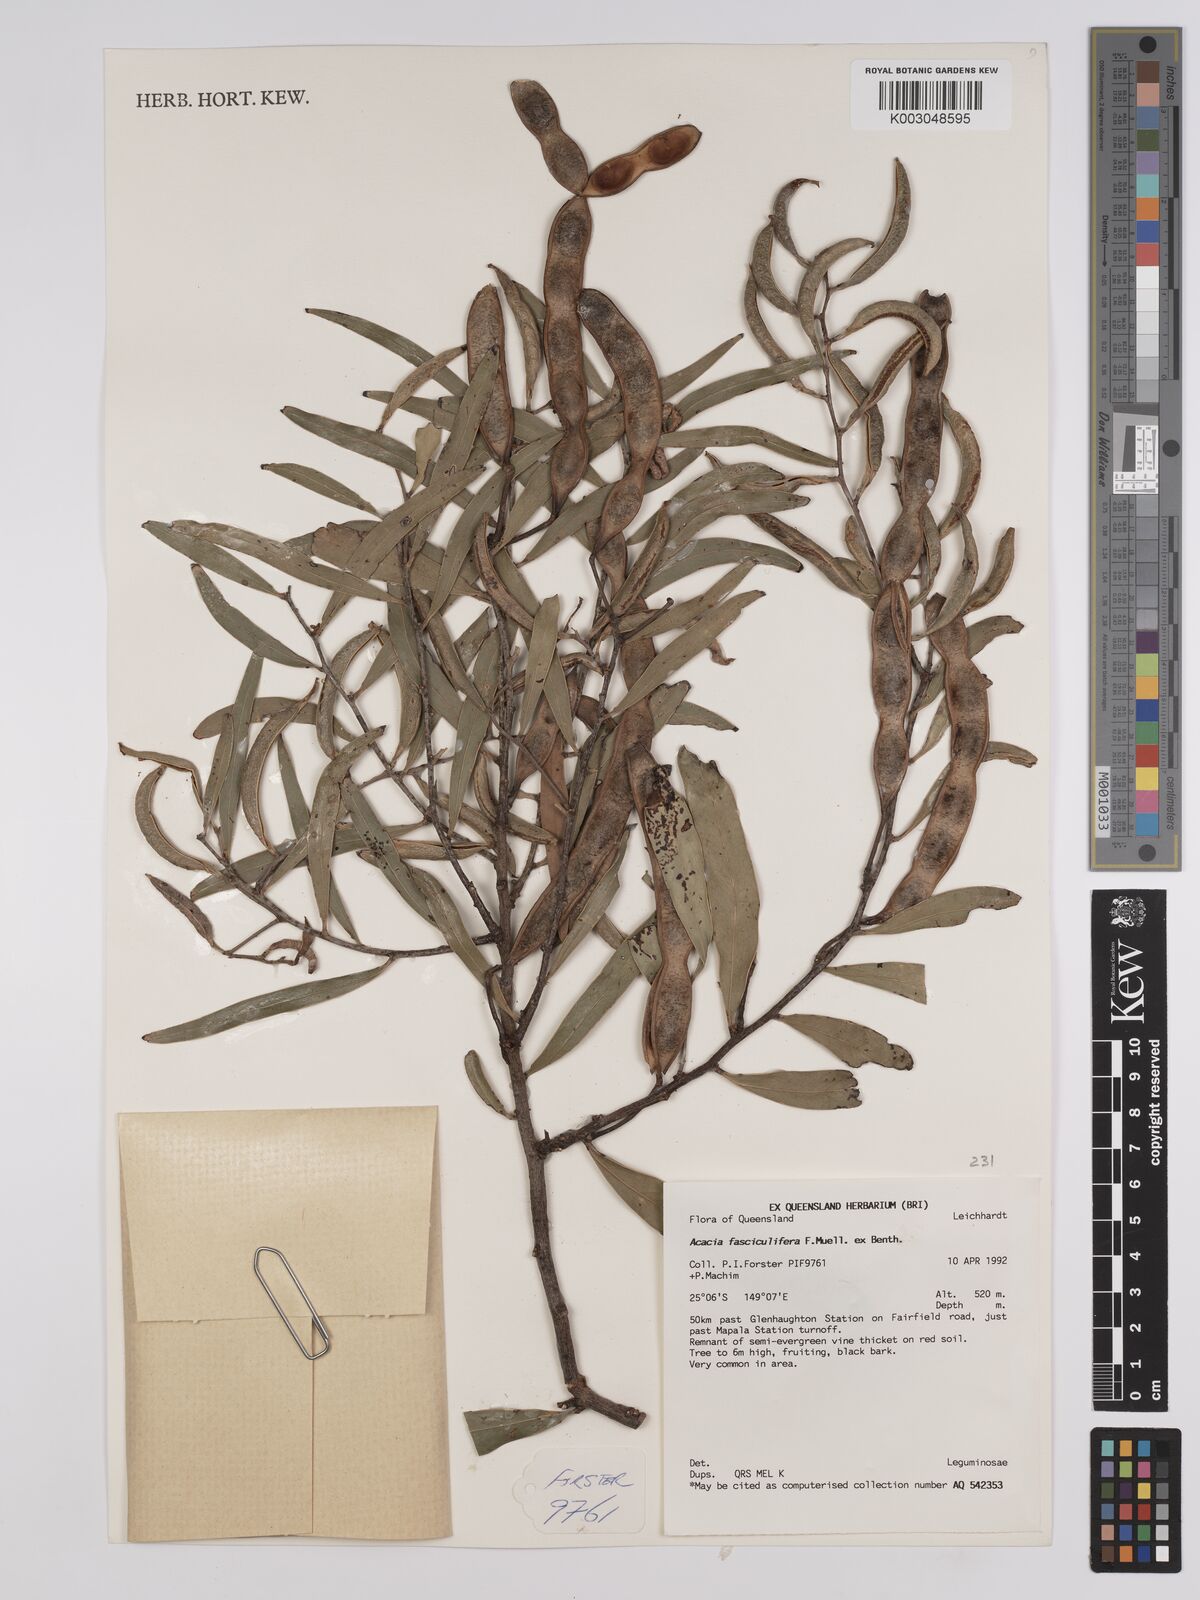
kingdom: Plantae
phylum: Tracheophyta
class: Magnoliopsida
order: Fabales
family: Fabaceae
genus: Acacia
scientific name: Acacia fasciculifera
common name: Scalybark
